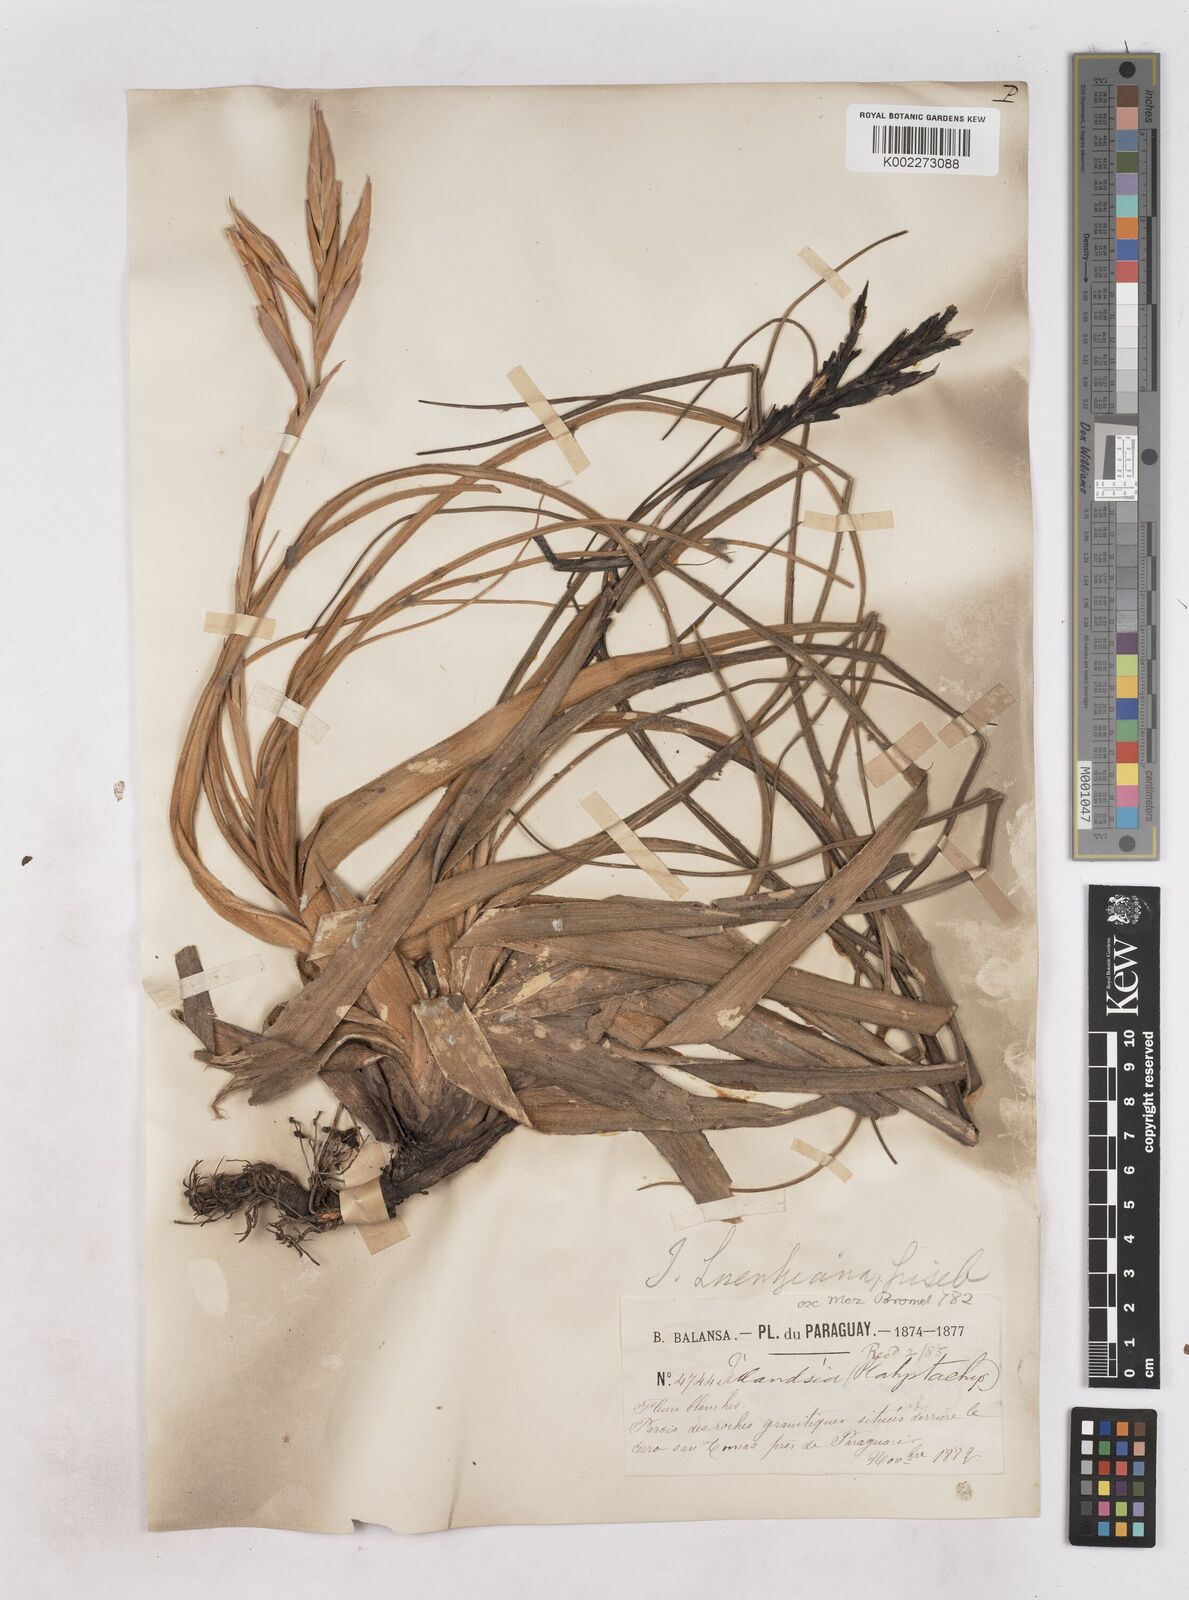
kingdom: Plantae
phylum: Tracheophyta
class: Liliopsida
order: Poales
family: Bromeliaceae
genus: Tillandsia
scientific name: Tillandsia lorentziana
